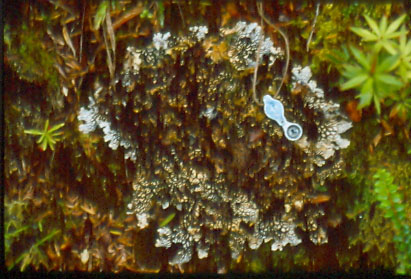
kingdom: Fungi
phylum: Ascomycota
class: Lecanoromycetes
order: Peltigerales
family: Lobariaceae
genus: Lobaria
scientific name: Lobaria retigera
